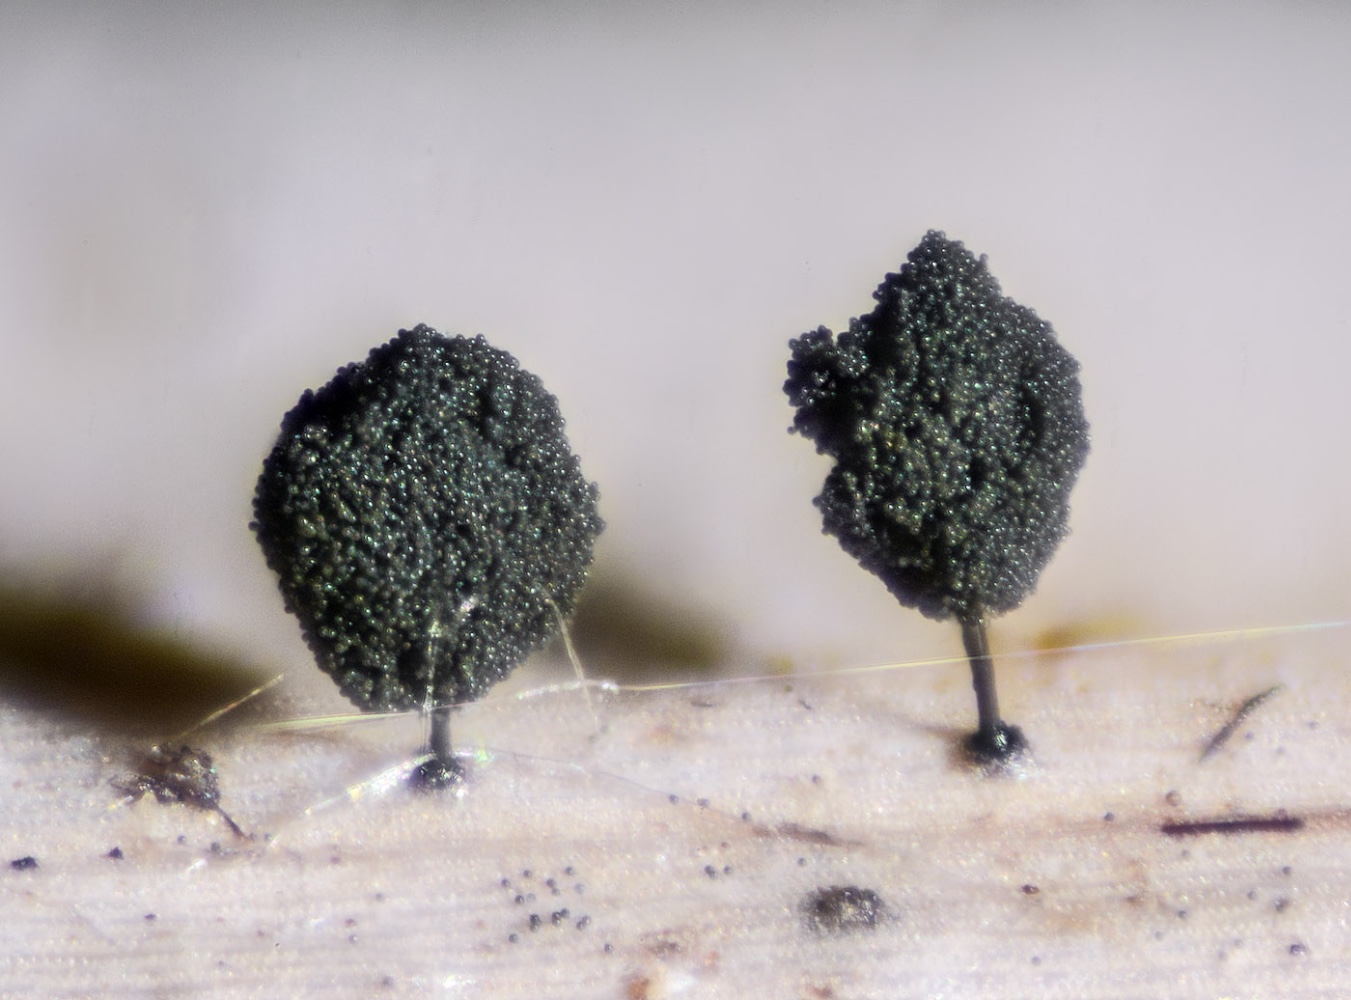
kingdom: Fungi
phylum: Ascomycota
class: Dothideomycetes
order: Pleosporales
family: Periconiaceae
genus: Periconia
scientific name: Periconia curta
